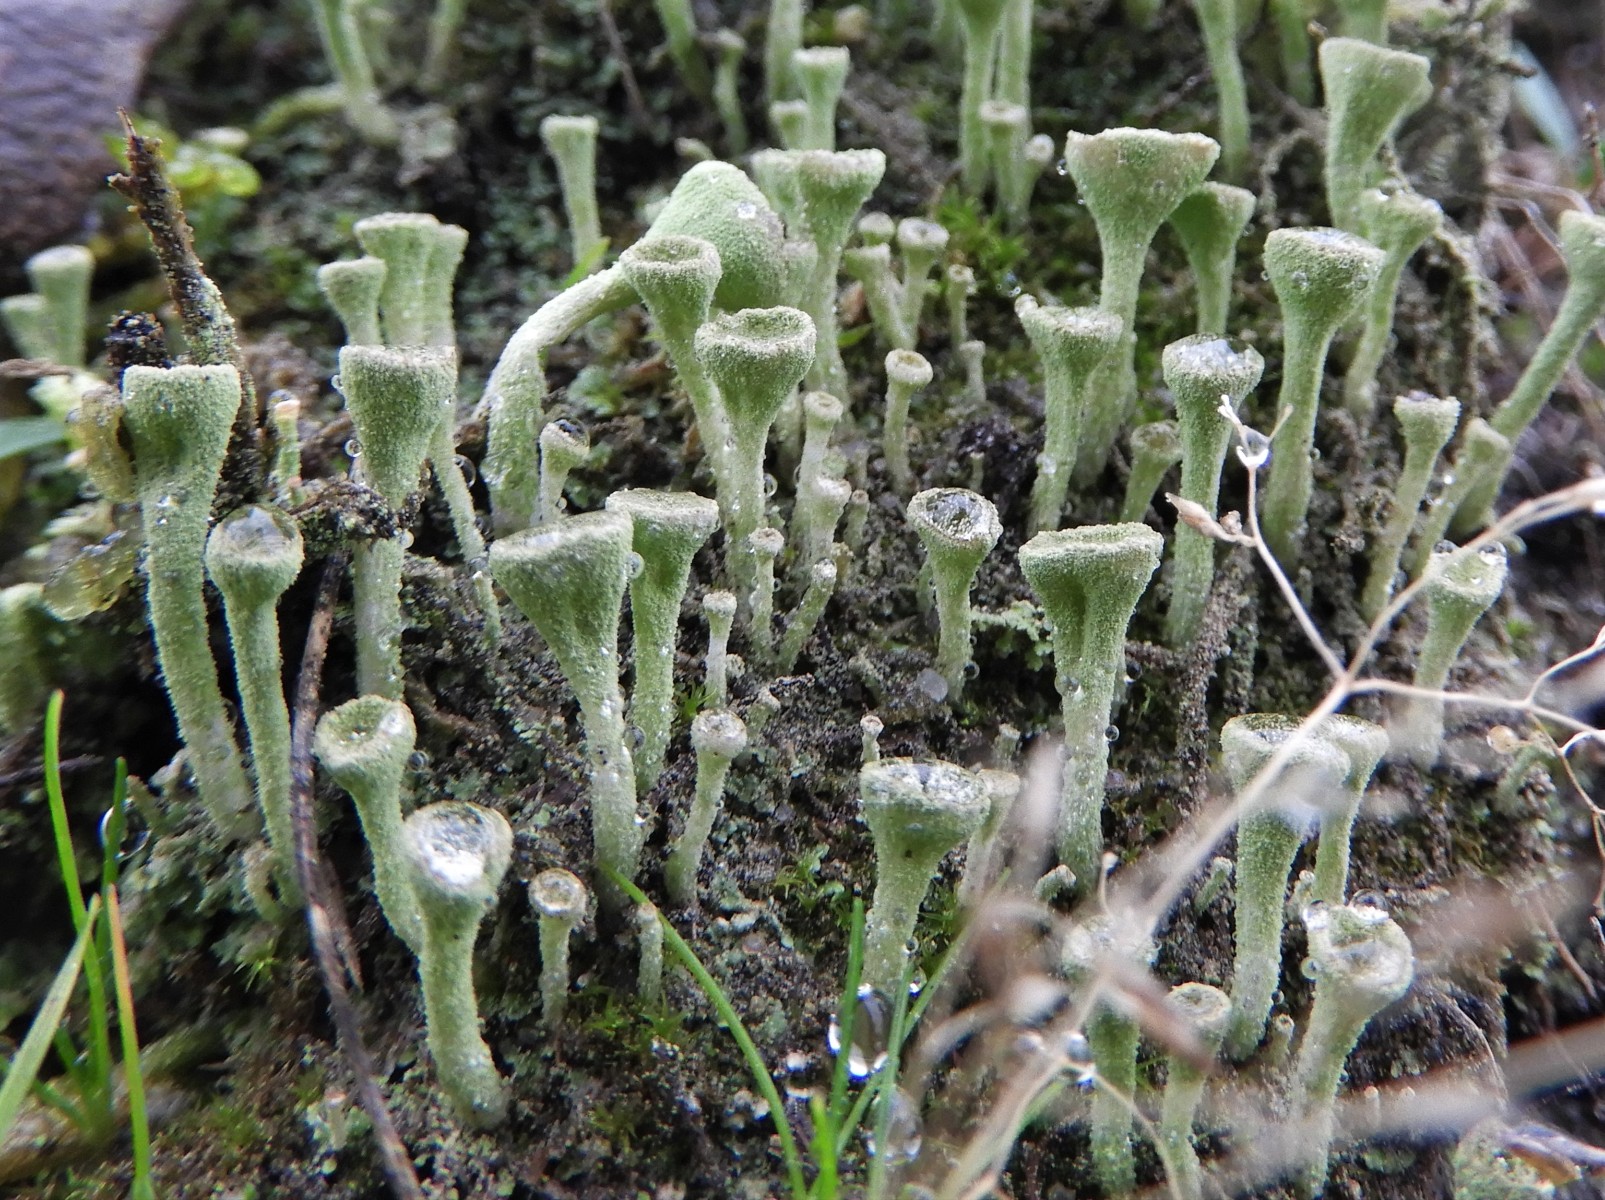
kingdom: Fungi
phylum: Ascomycota
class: Lecanoromycetes
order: Lecanorales
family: Cladoniaceae
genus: Cladonia
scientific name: Cladonia fimbriata
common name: bleggrøn bægerlav
